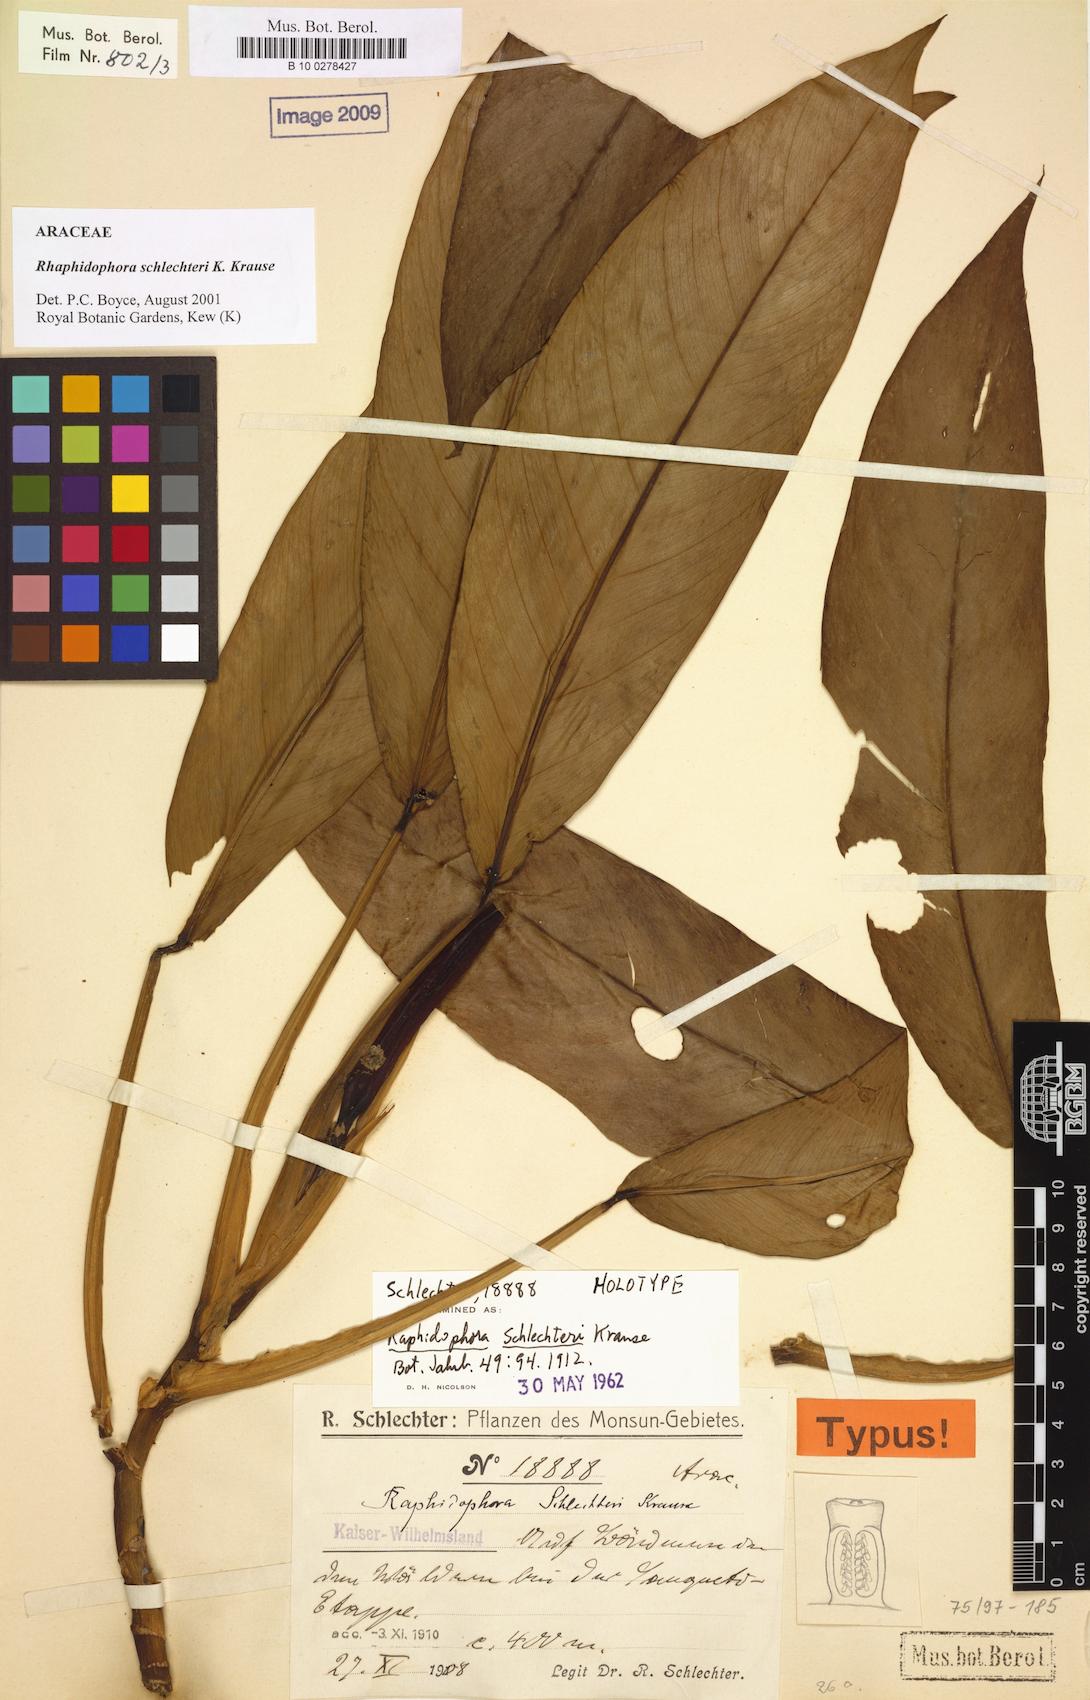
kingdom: Plantae
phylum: Tracheophyta
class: Liliopsida
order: Alismatales
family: Araceae
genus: Rhaphidophora
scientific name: Rhaphidophora schlechteri
